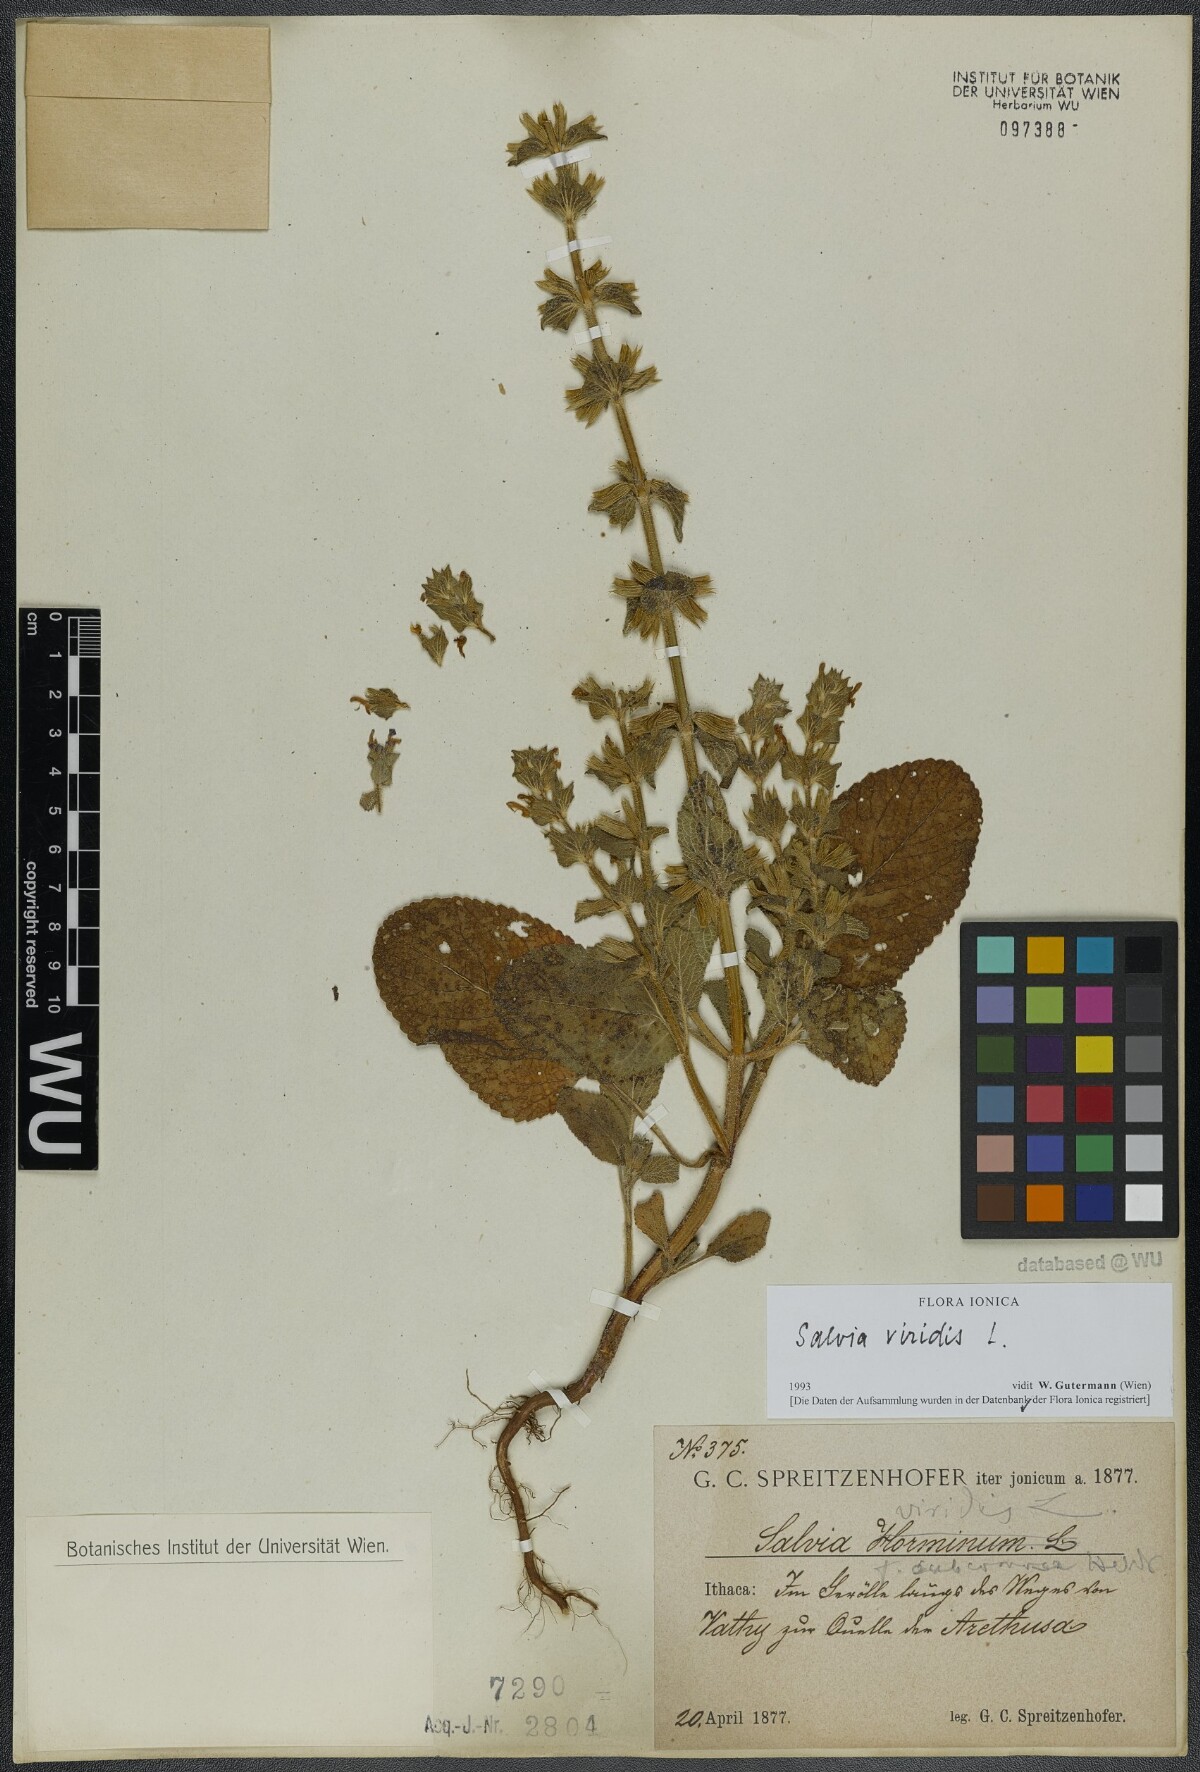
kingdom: Plantae
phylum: Tracheophyta
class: Magnoliopsida
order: Lamiales
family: Lamiaceae
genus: Salvia
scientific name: Salvia viridis
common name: Annual clary
